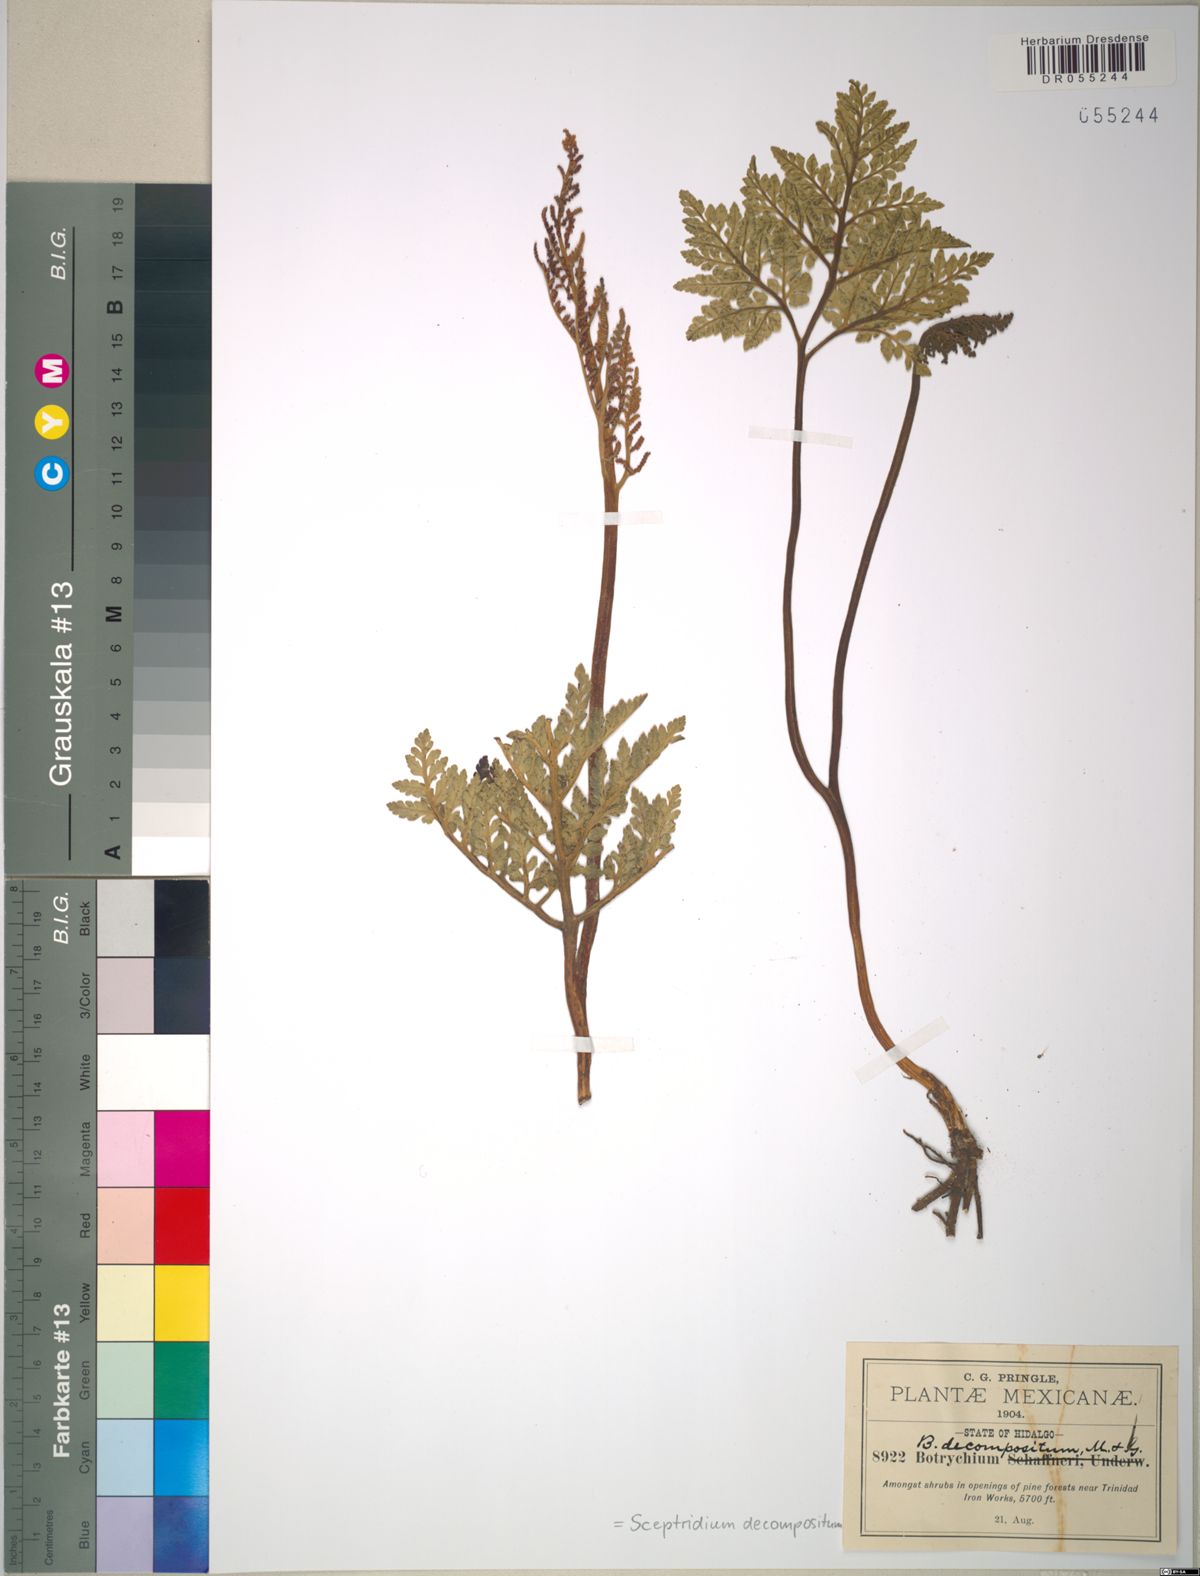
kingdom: Plantae
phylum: Tracheophyta
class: Polypodiopsida
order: Ophioglossales
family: Ophioglossaceae
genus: Sceptridium
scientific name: Sceptridium decompositum
